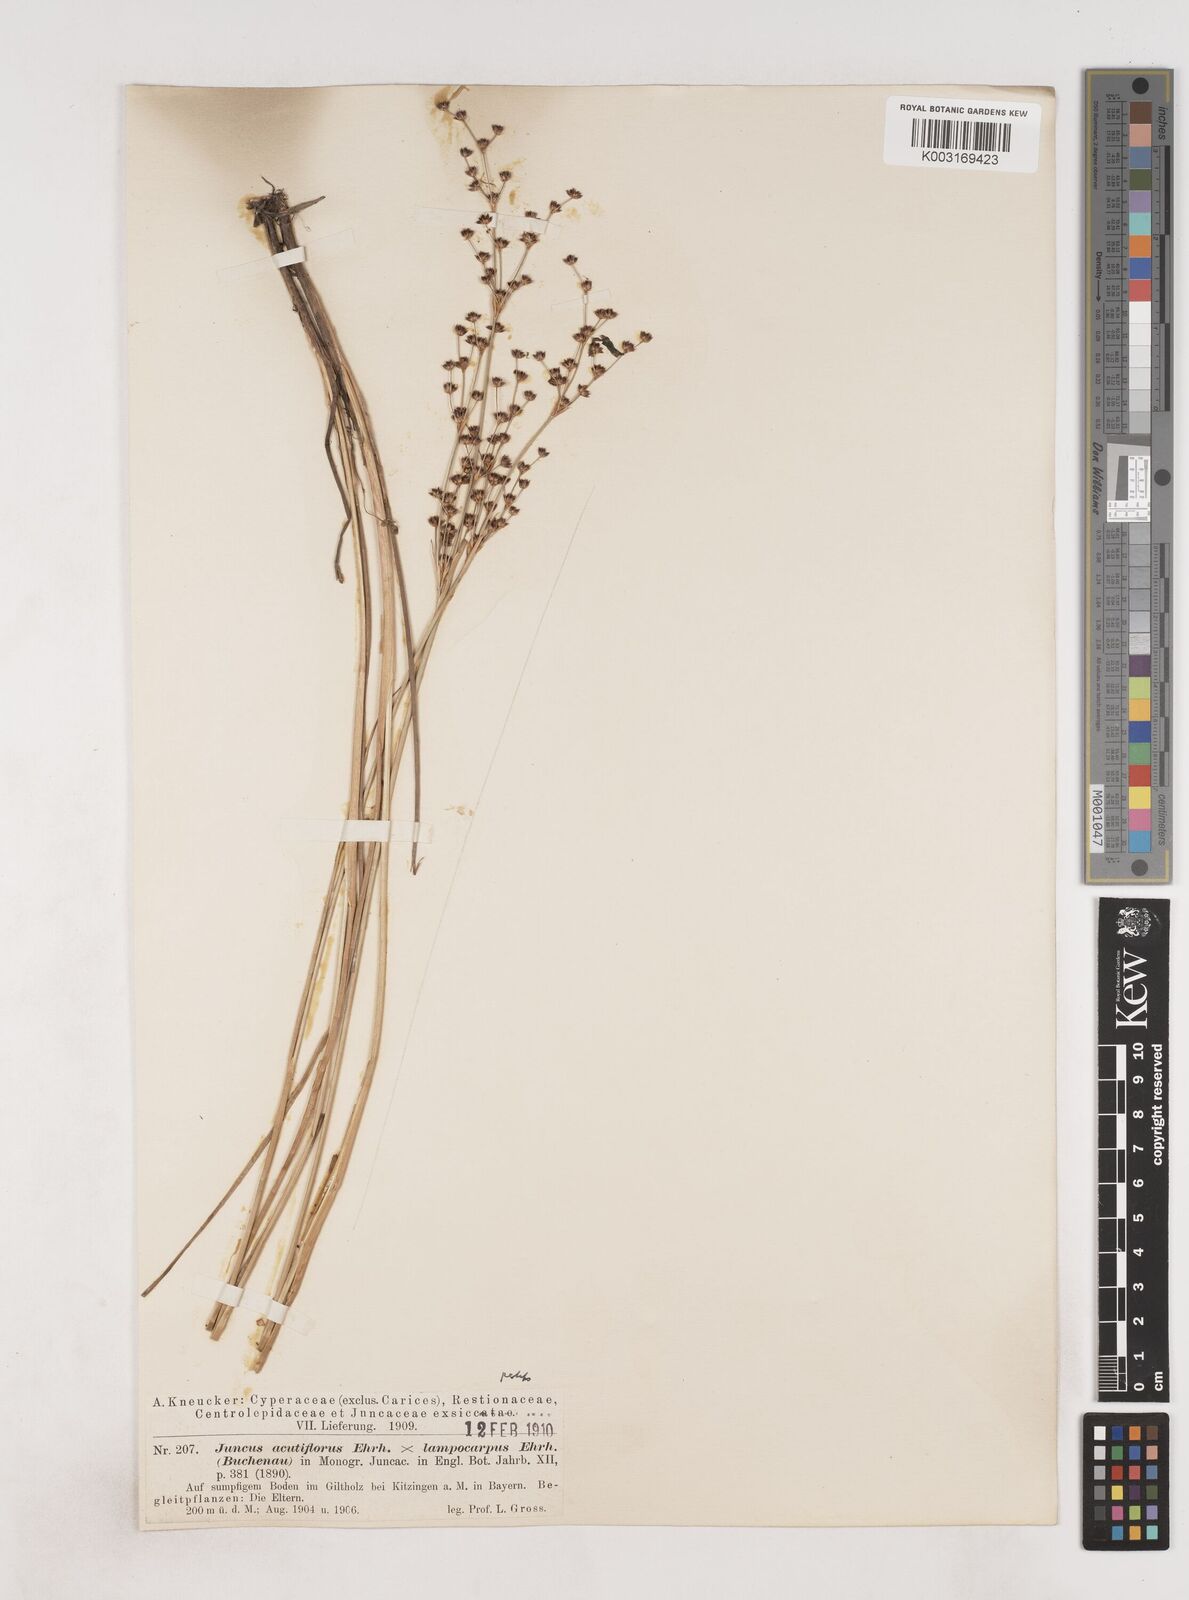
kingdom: Plantae
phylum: Tracheophyta
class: Liliopsida
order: Poales
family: Juncaceae
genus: Juncus
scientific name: Juncus acutiflorus
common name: Sharp-flowered rush
